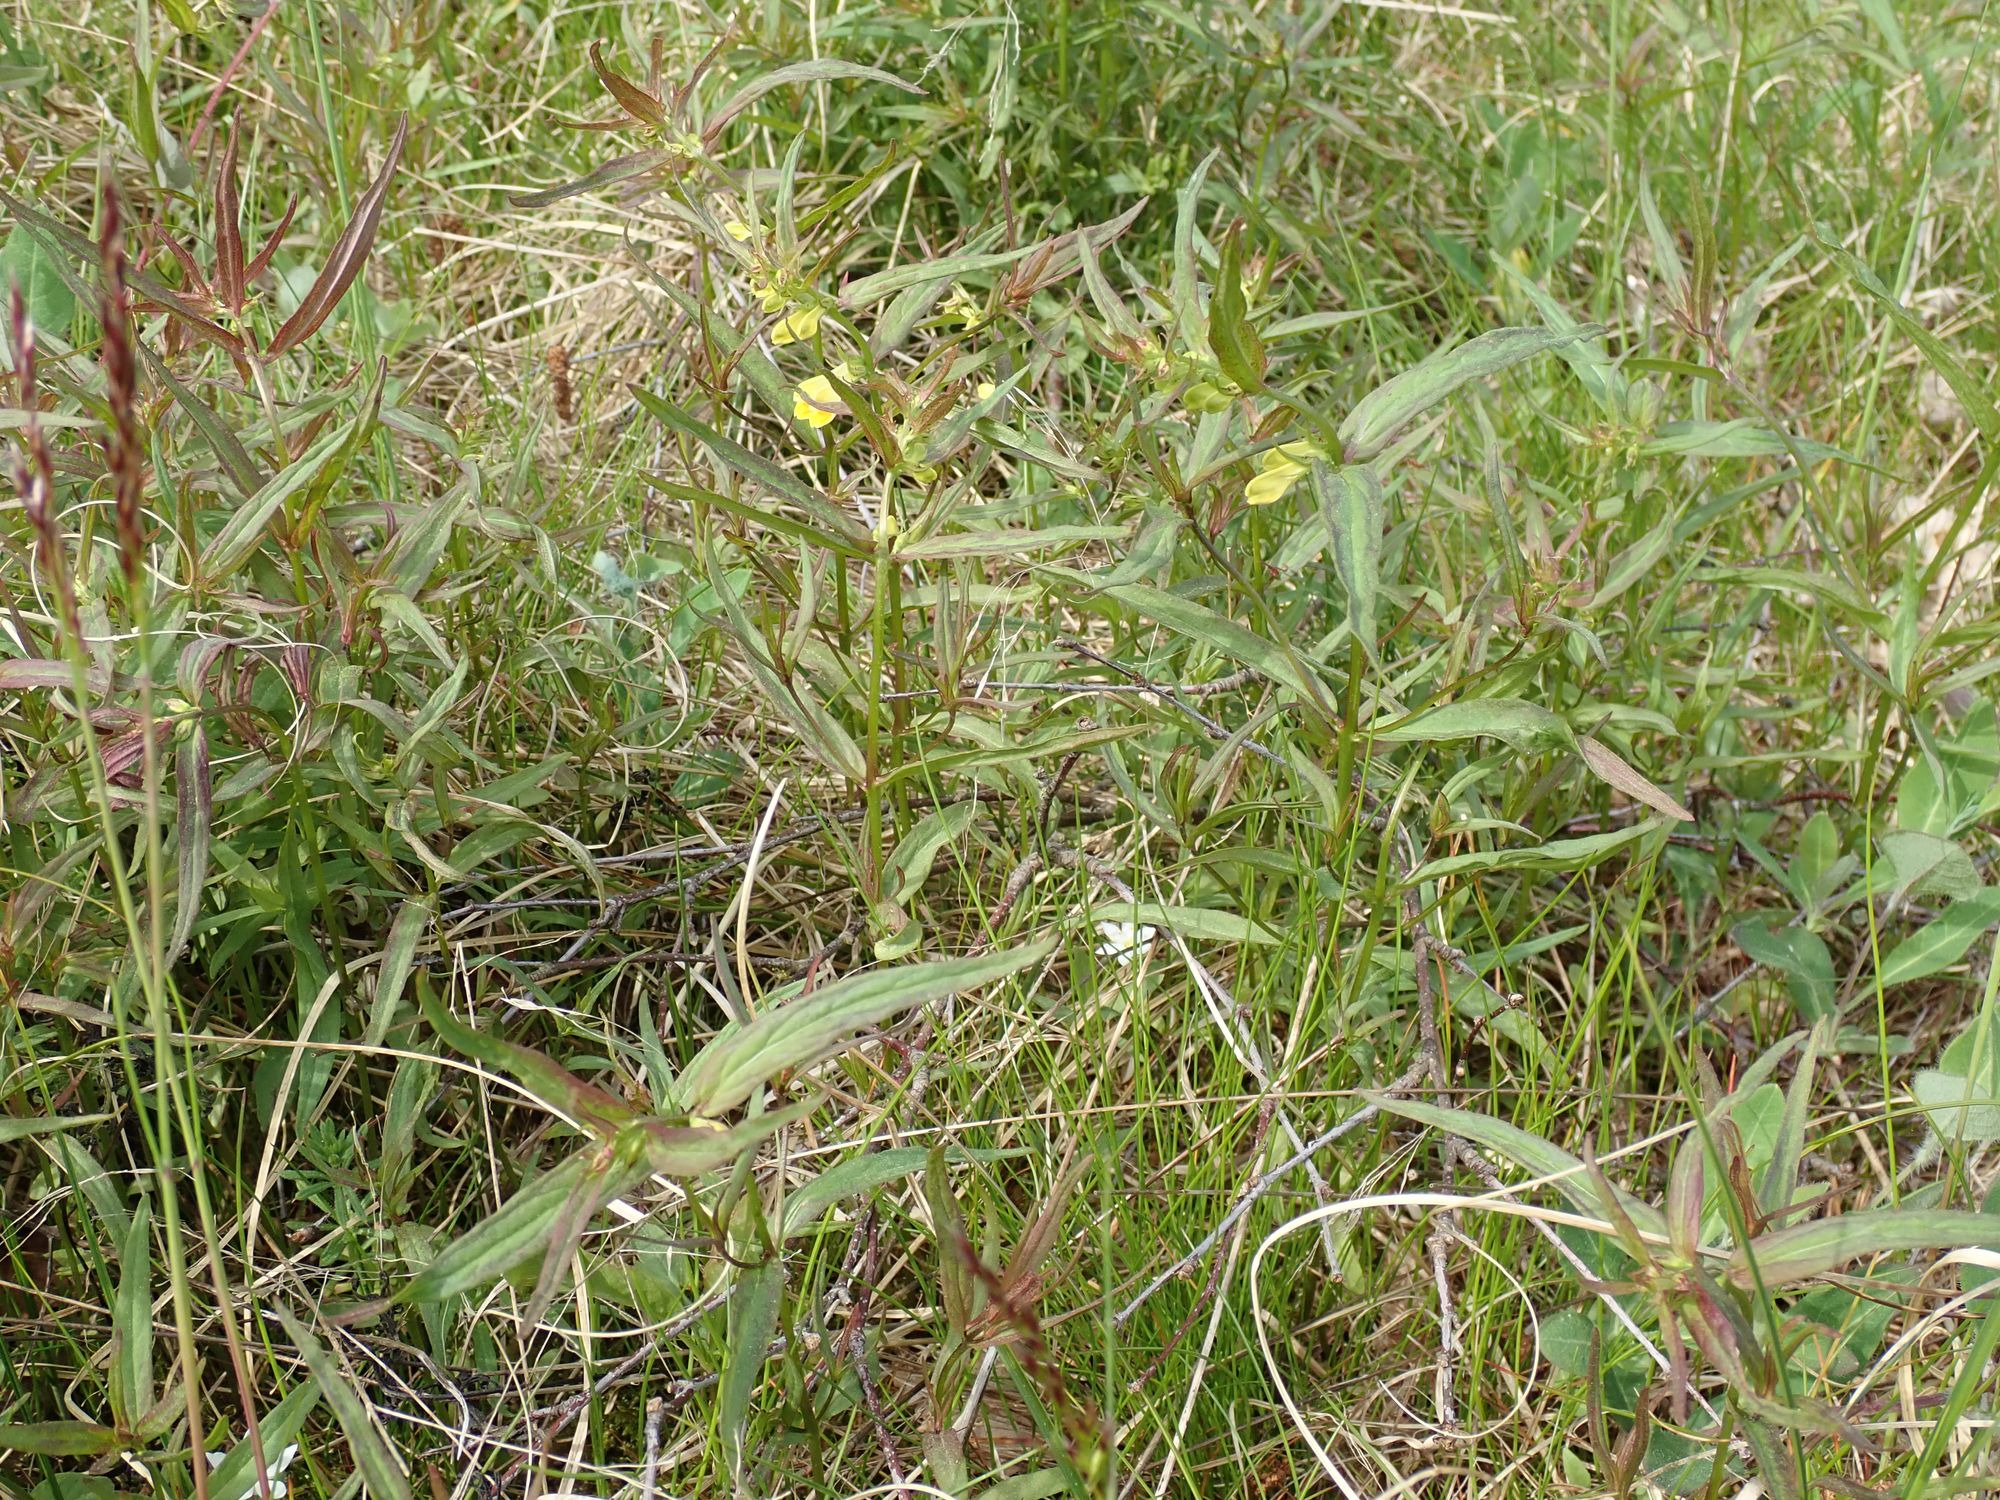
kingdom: Plantae
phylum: Tracheophyta
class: Magnoliopsida
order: Lamiales
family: Orobanchaceae
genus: Melampyrum
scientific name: Melampyrum pratense
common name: Almindelig kohvede
